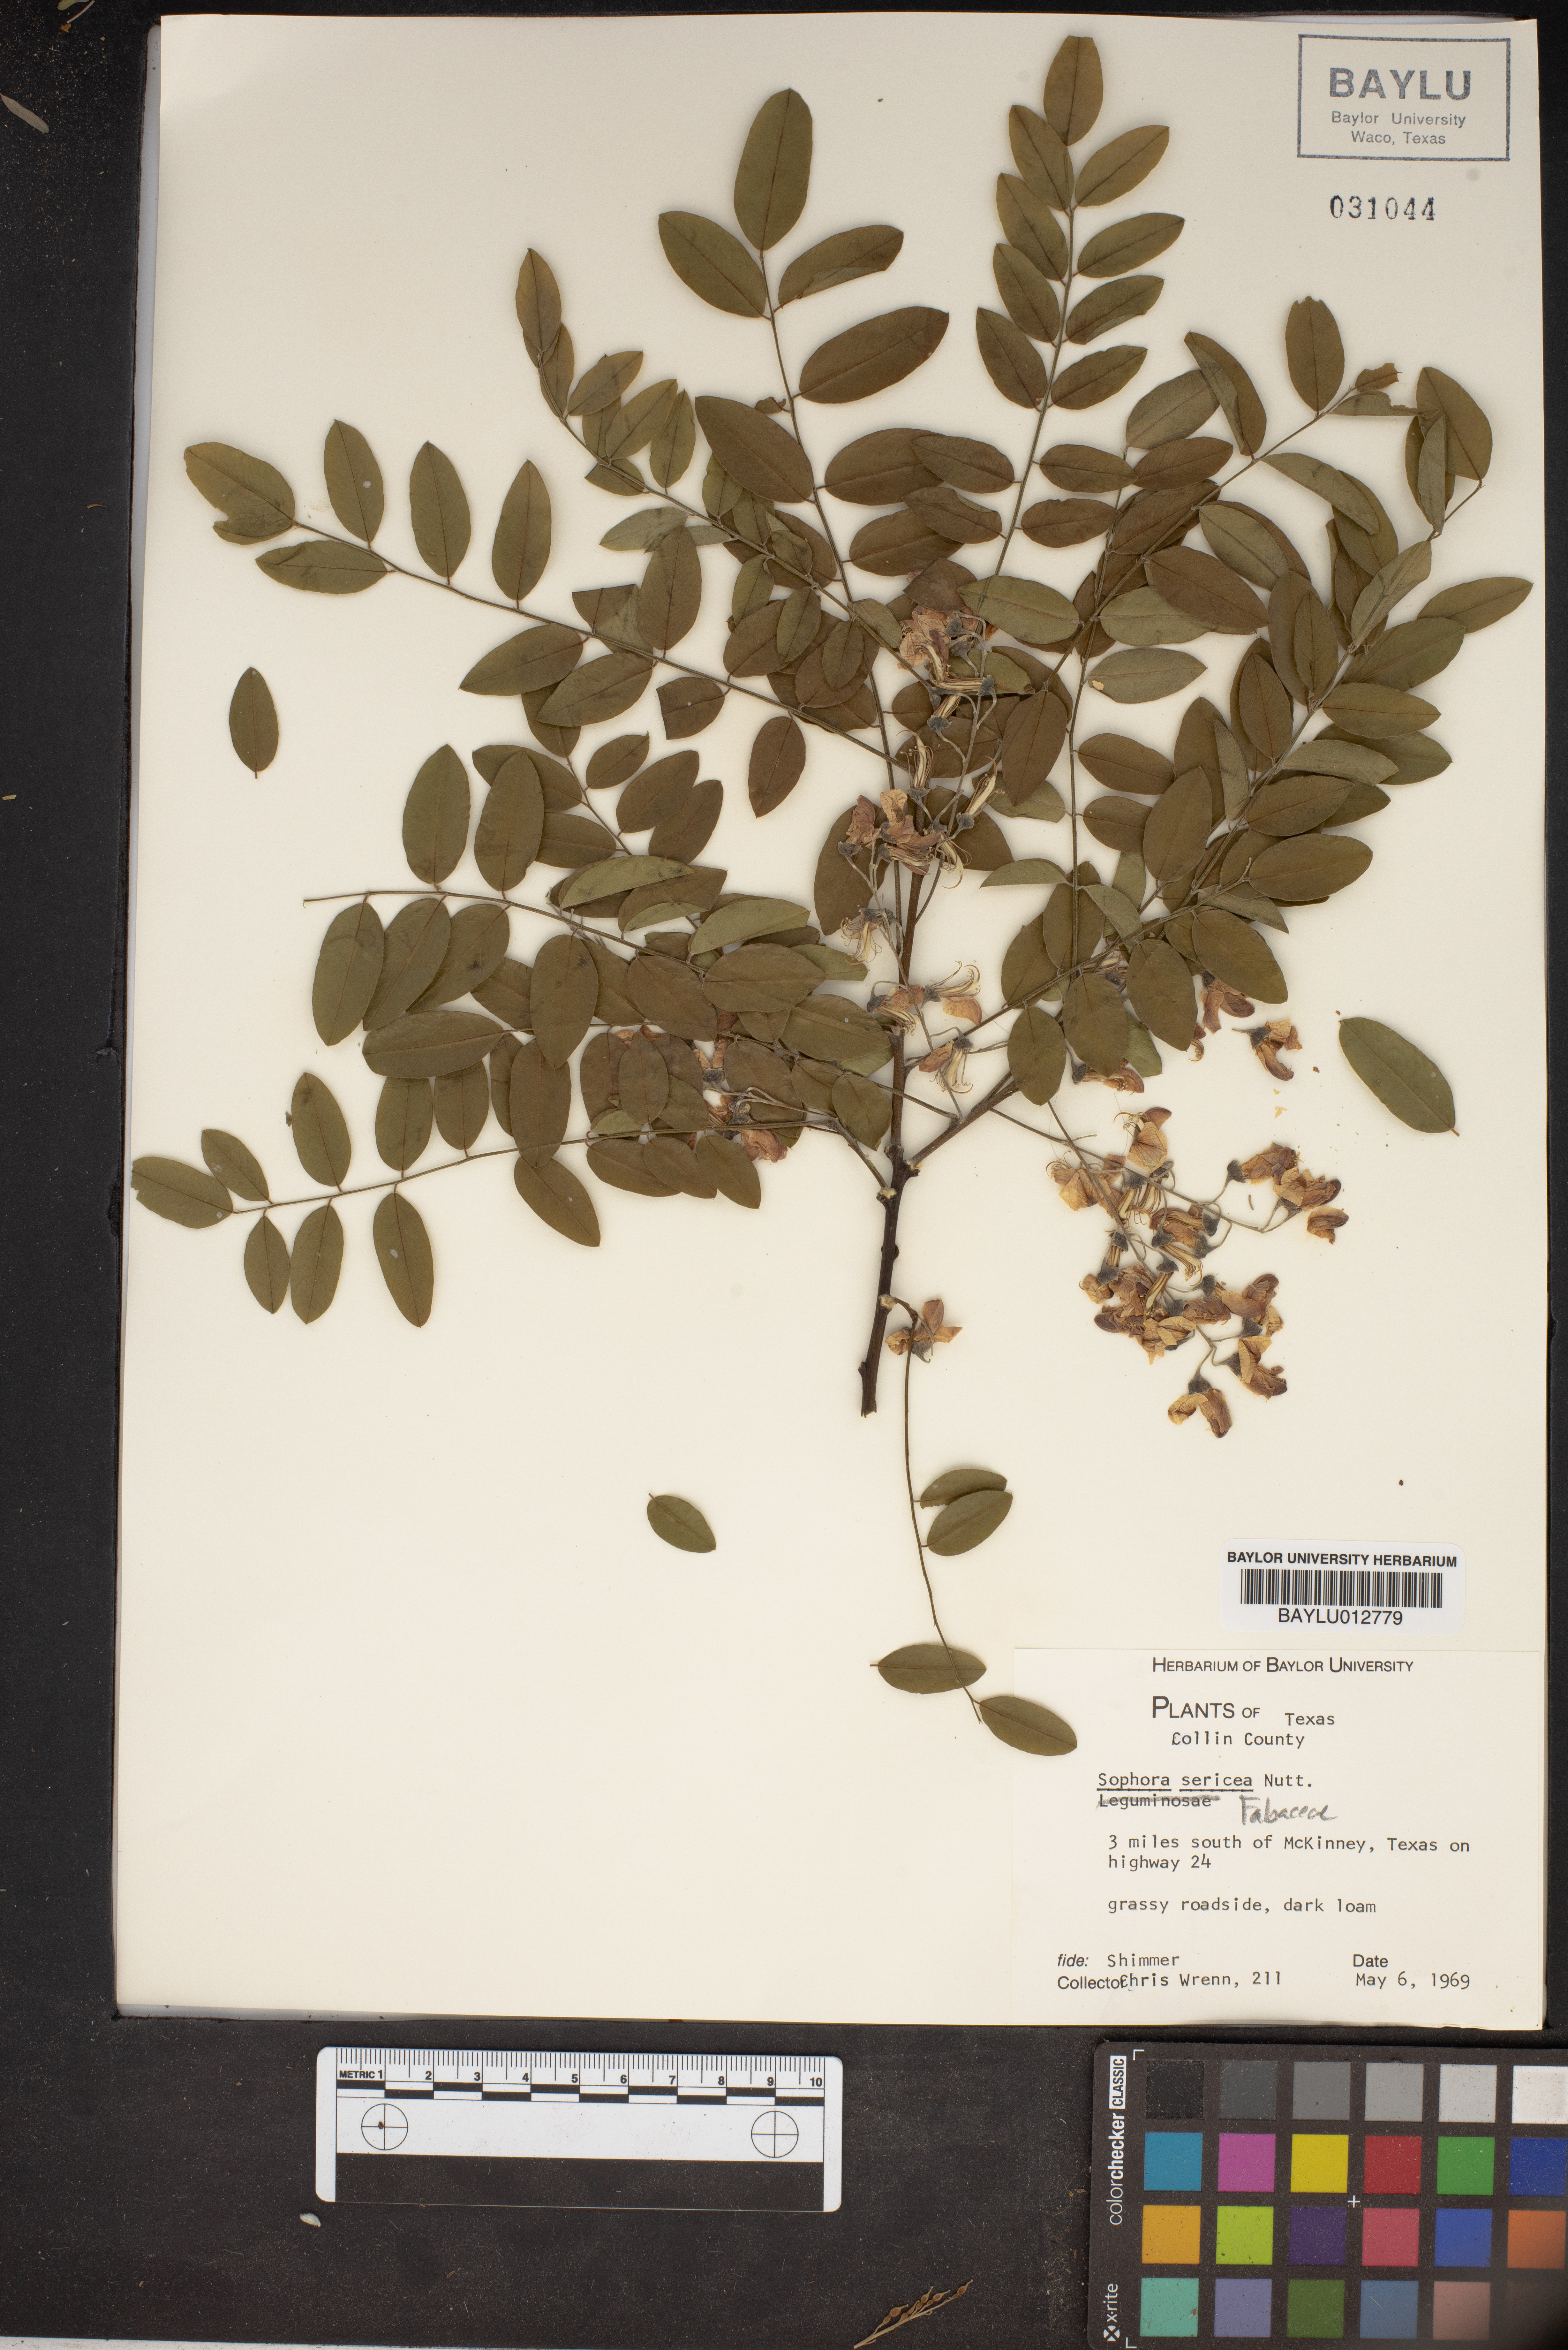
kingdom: Plantae
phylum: Tracheophyta
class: Magnoliopsida
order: Fabales
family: Fabaceae
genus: Sophora
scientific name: Sophora nuttalliana
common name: Silky sophora
